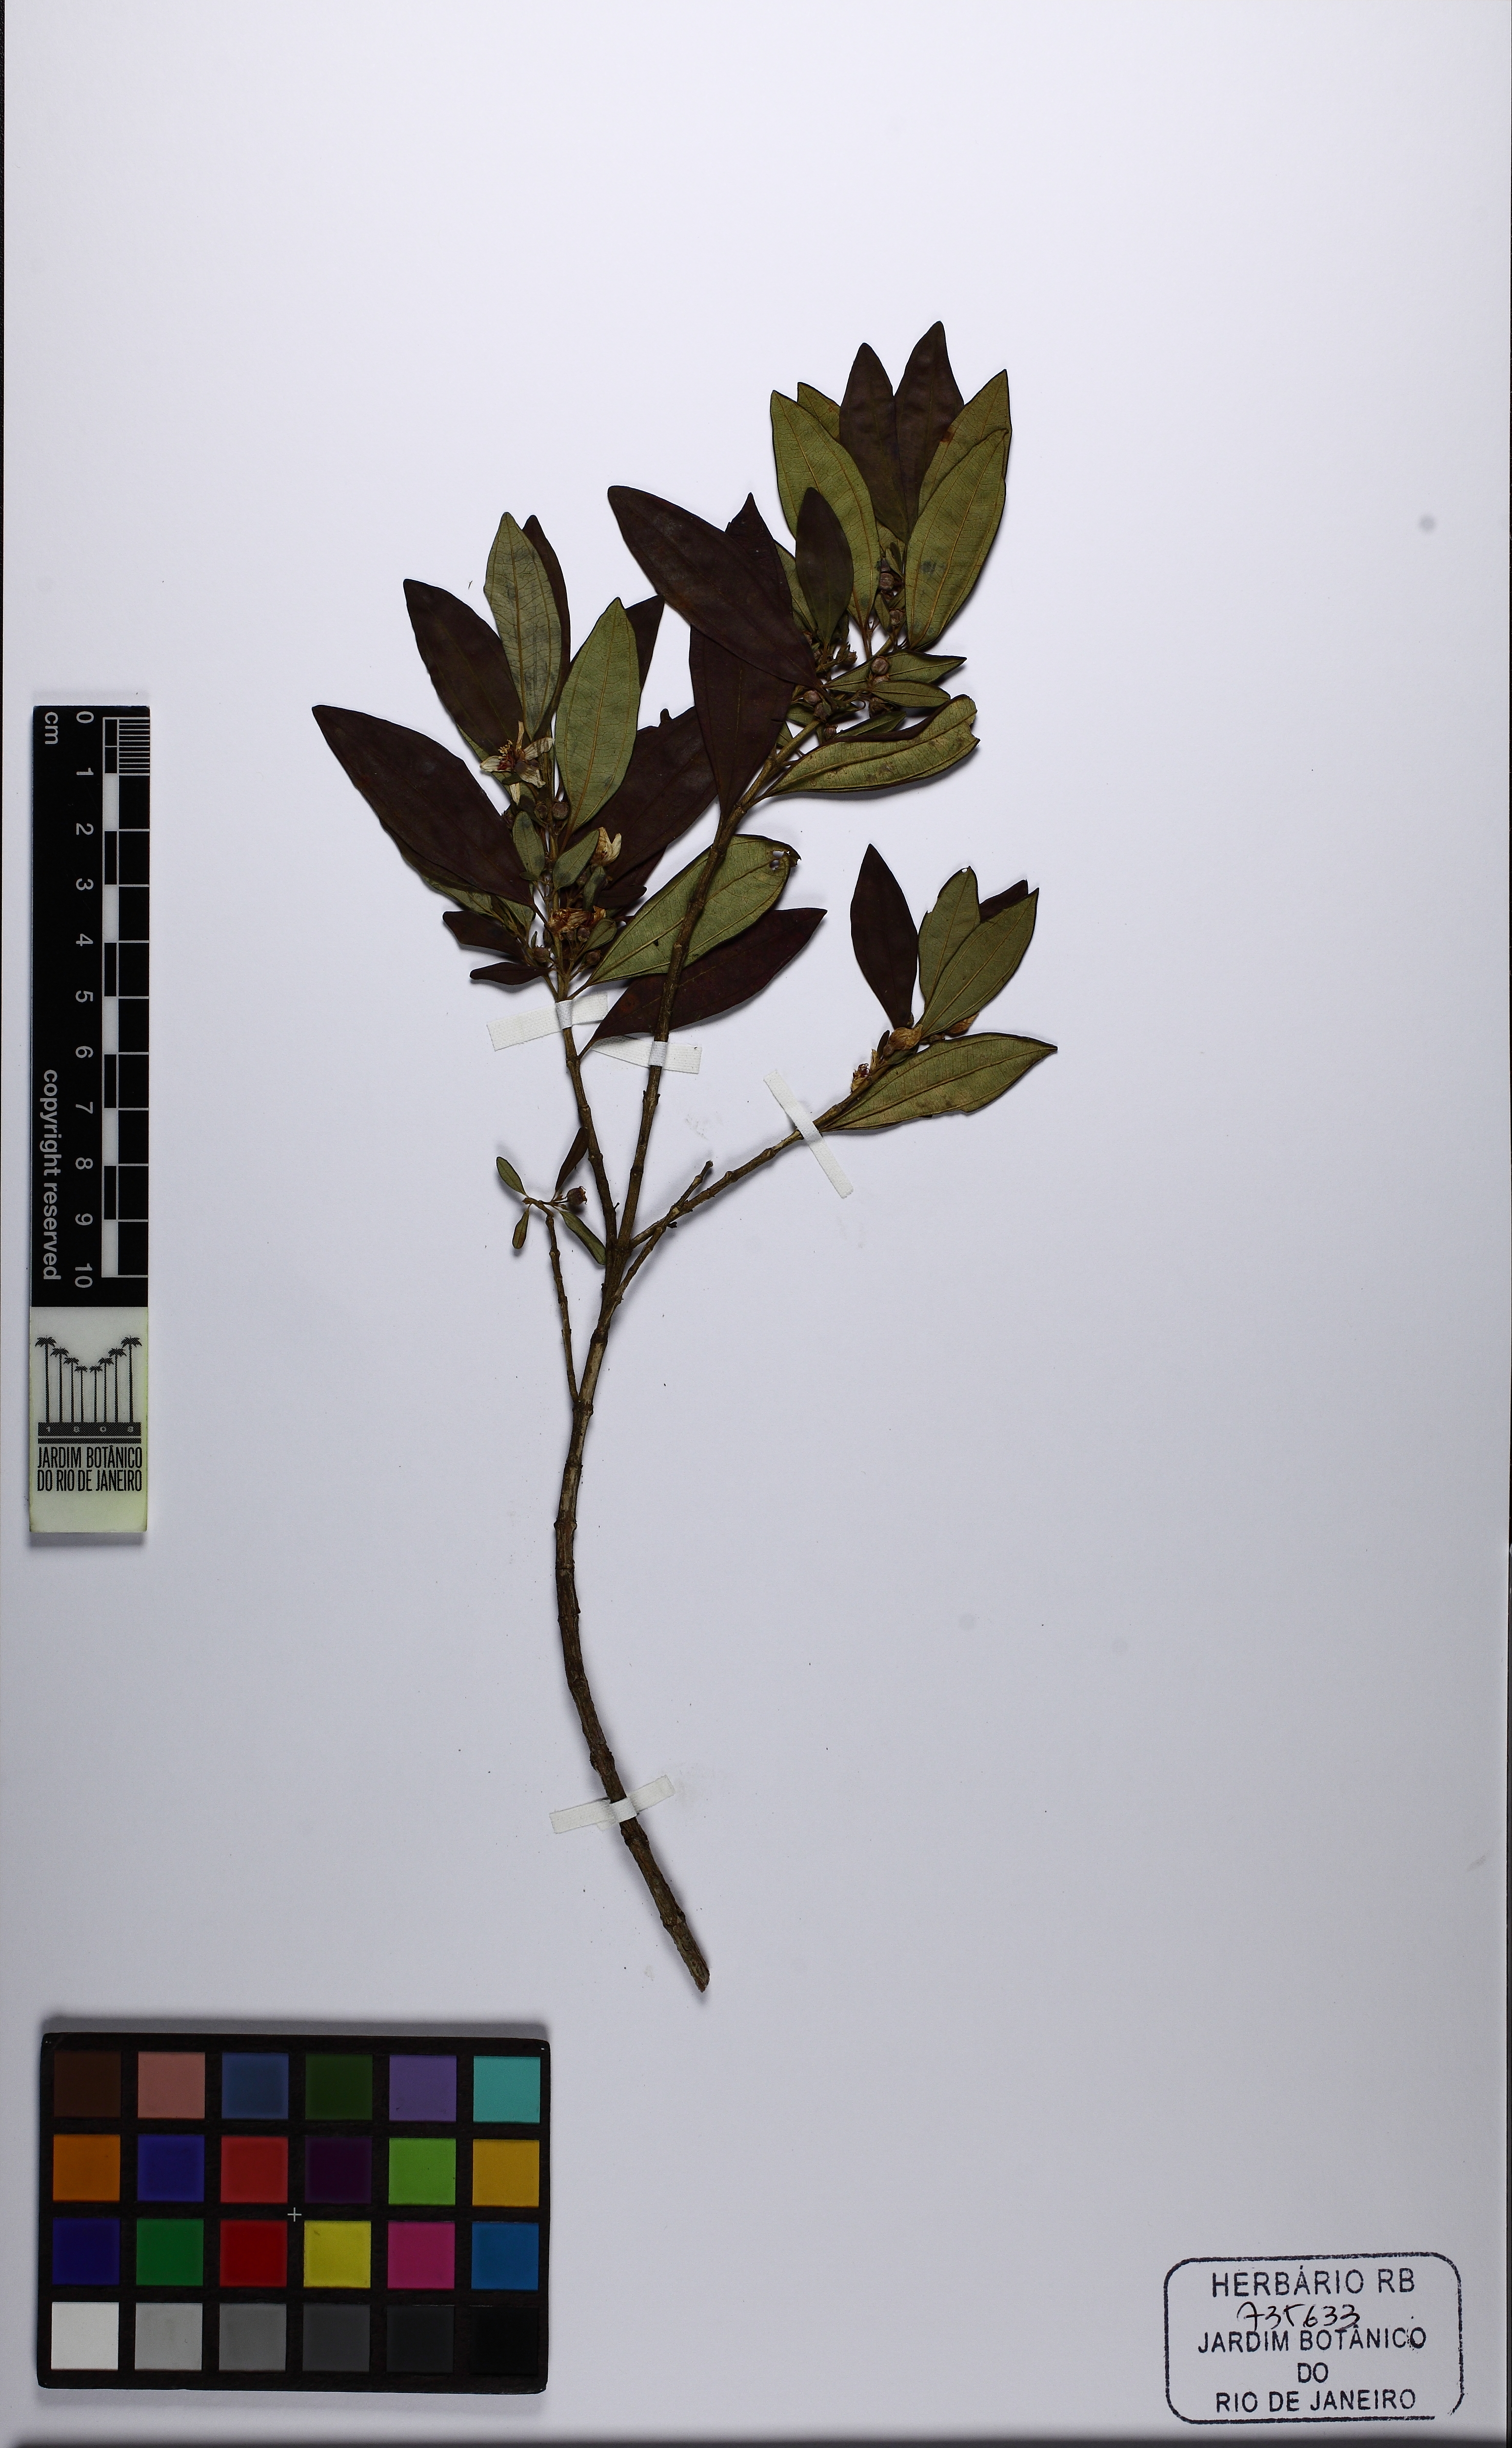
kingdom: Plantae
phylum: Tracheophyta
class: Magnoliopsida
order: Myrtales
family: Melastomataceae
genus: Microlicia
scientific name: Microlicia parviflora
